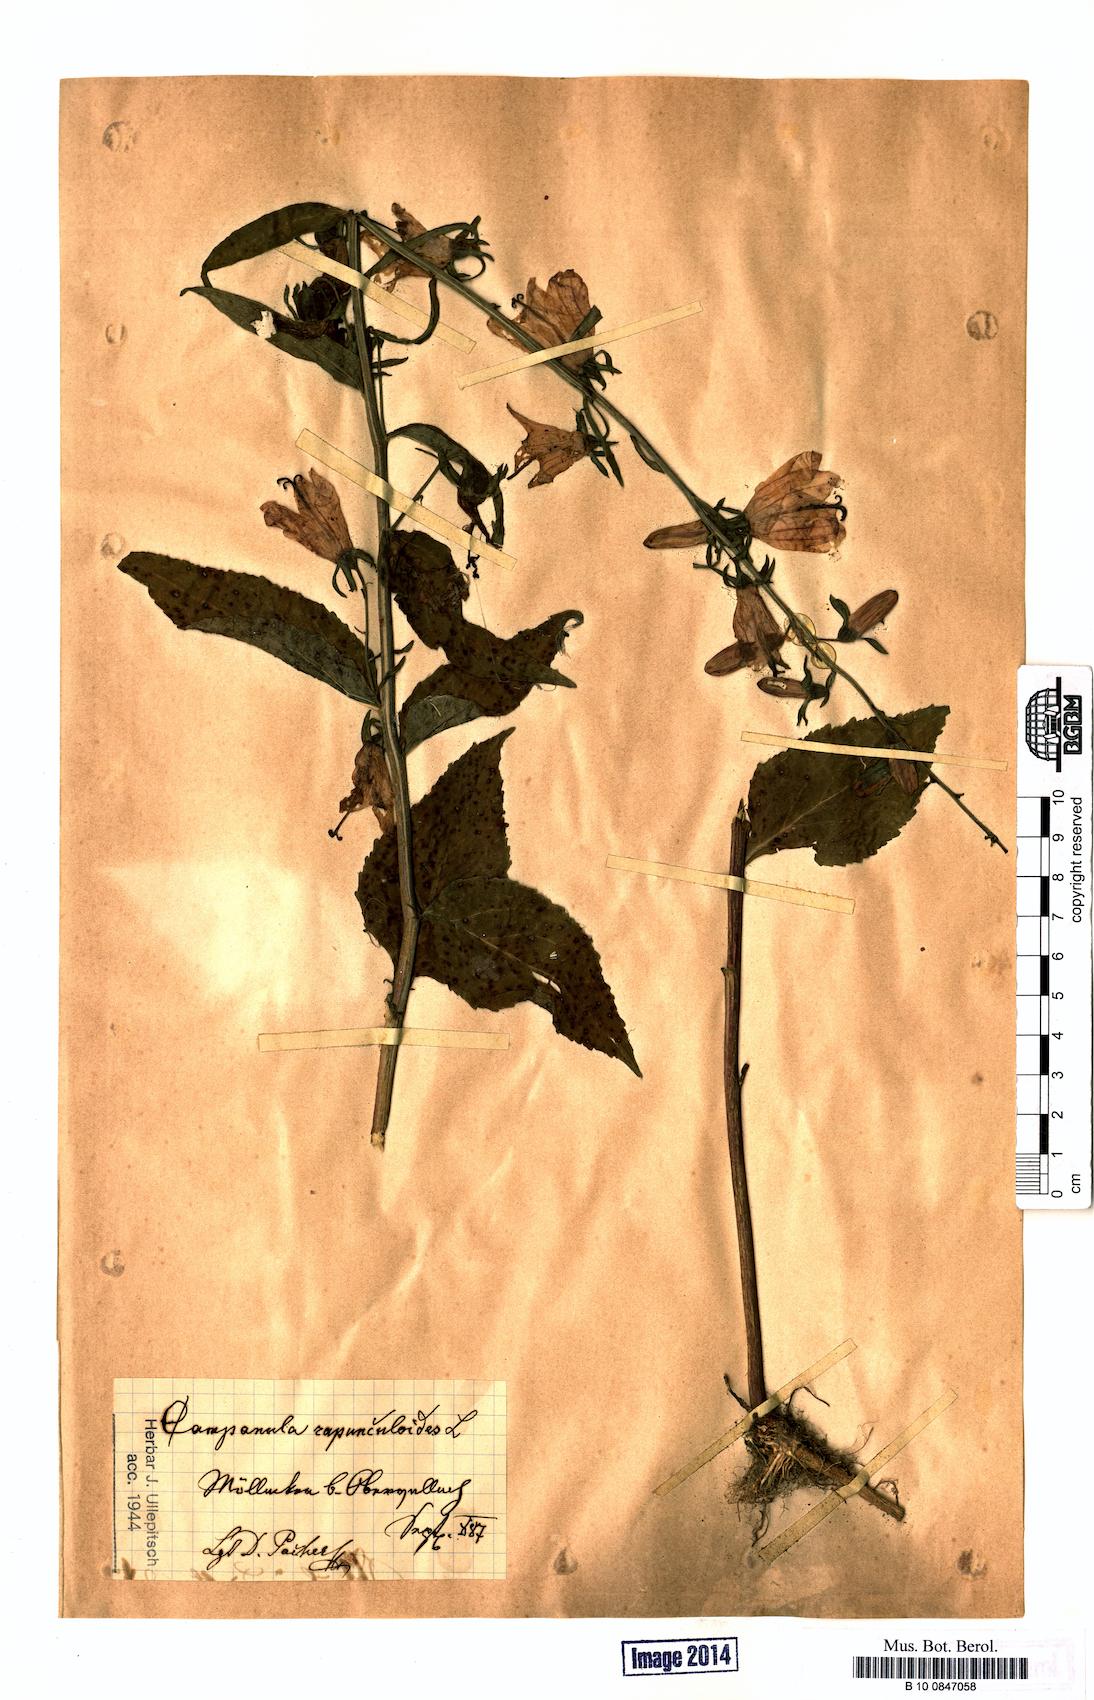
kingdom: Plantae
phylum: Tracheophyta
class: Magnoliopsida
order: Asterales
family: Campanulaceae
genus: Campanula
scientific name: Campanula rapunculoides
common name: Creeping bellflower
